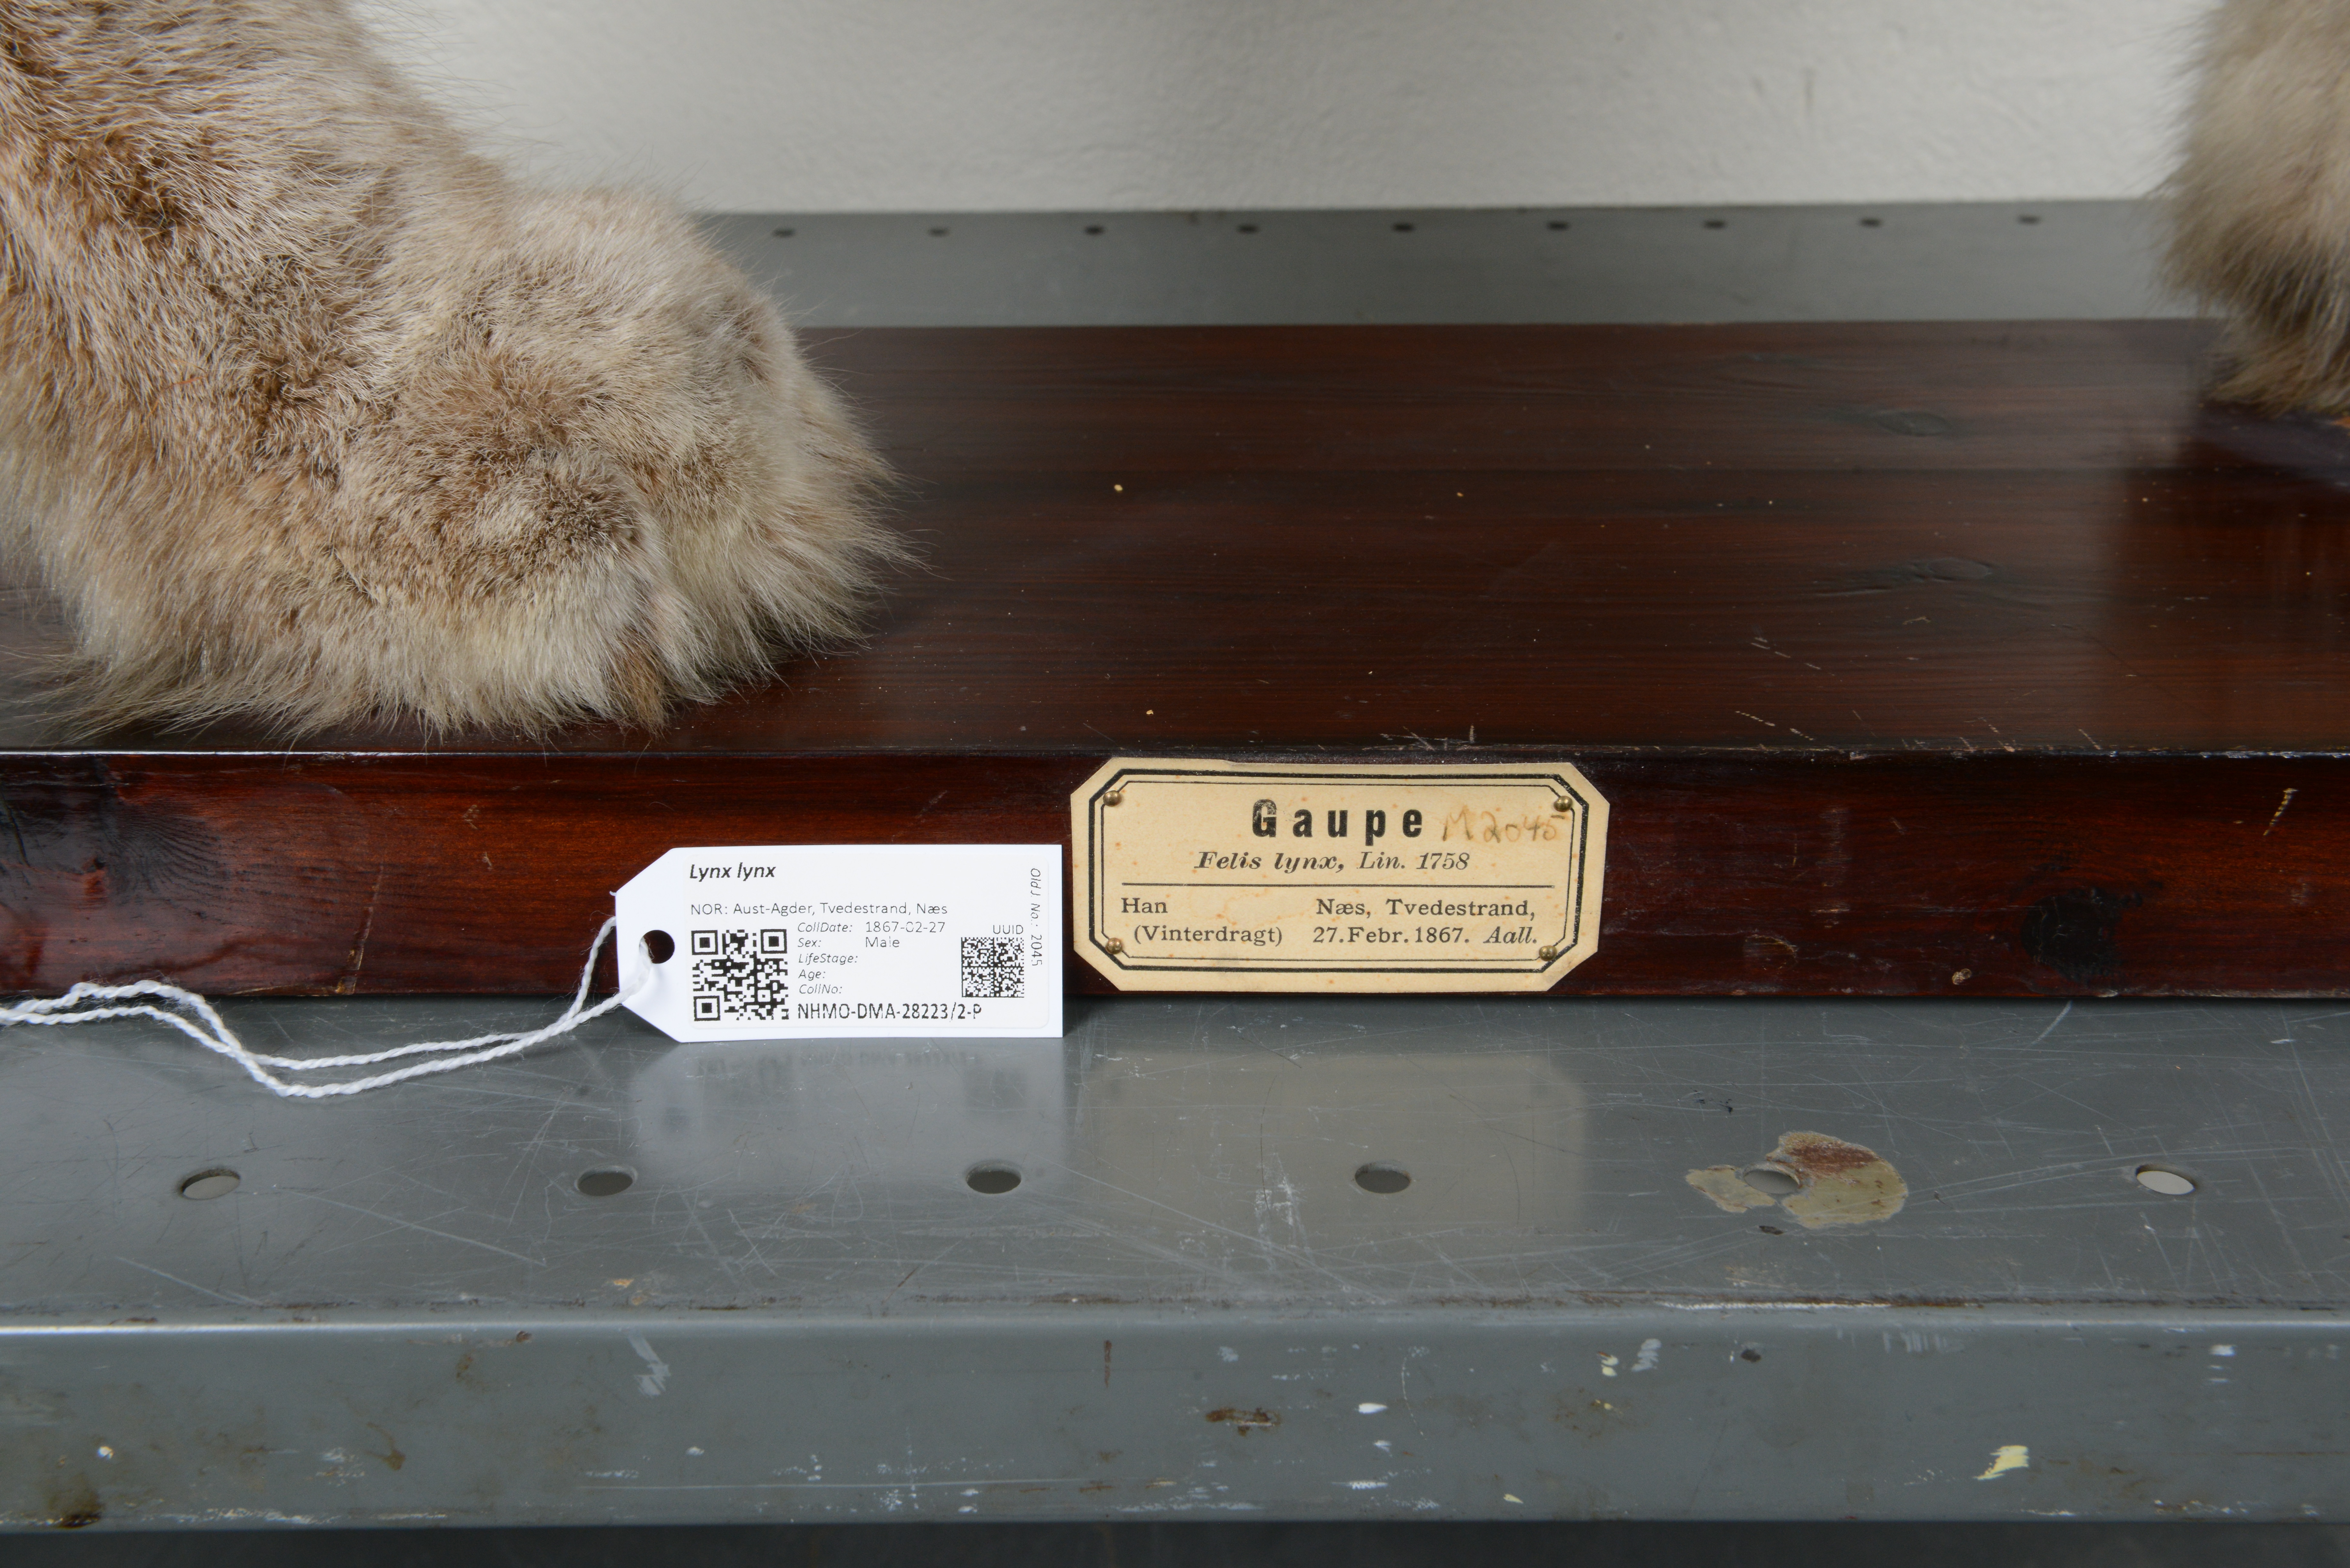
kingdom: Animalia
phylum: Chordata
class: Mammalia
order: Carnivora
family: Felidae
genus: Lynx
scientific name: Lynx lynx
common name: Eurasian lynx
